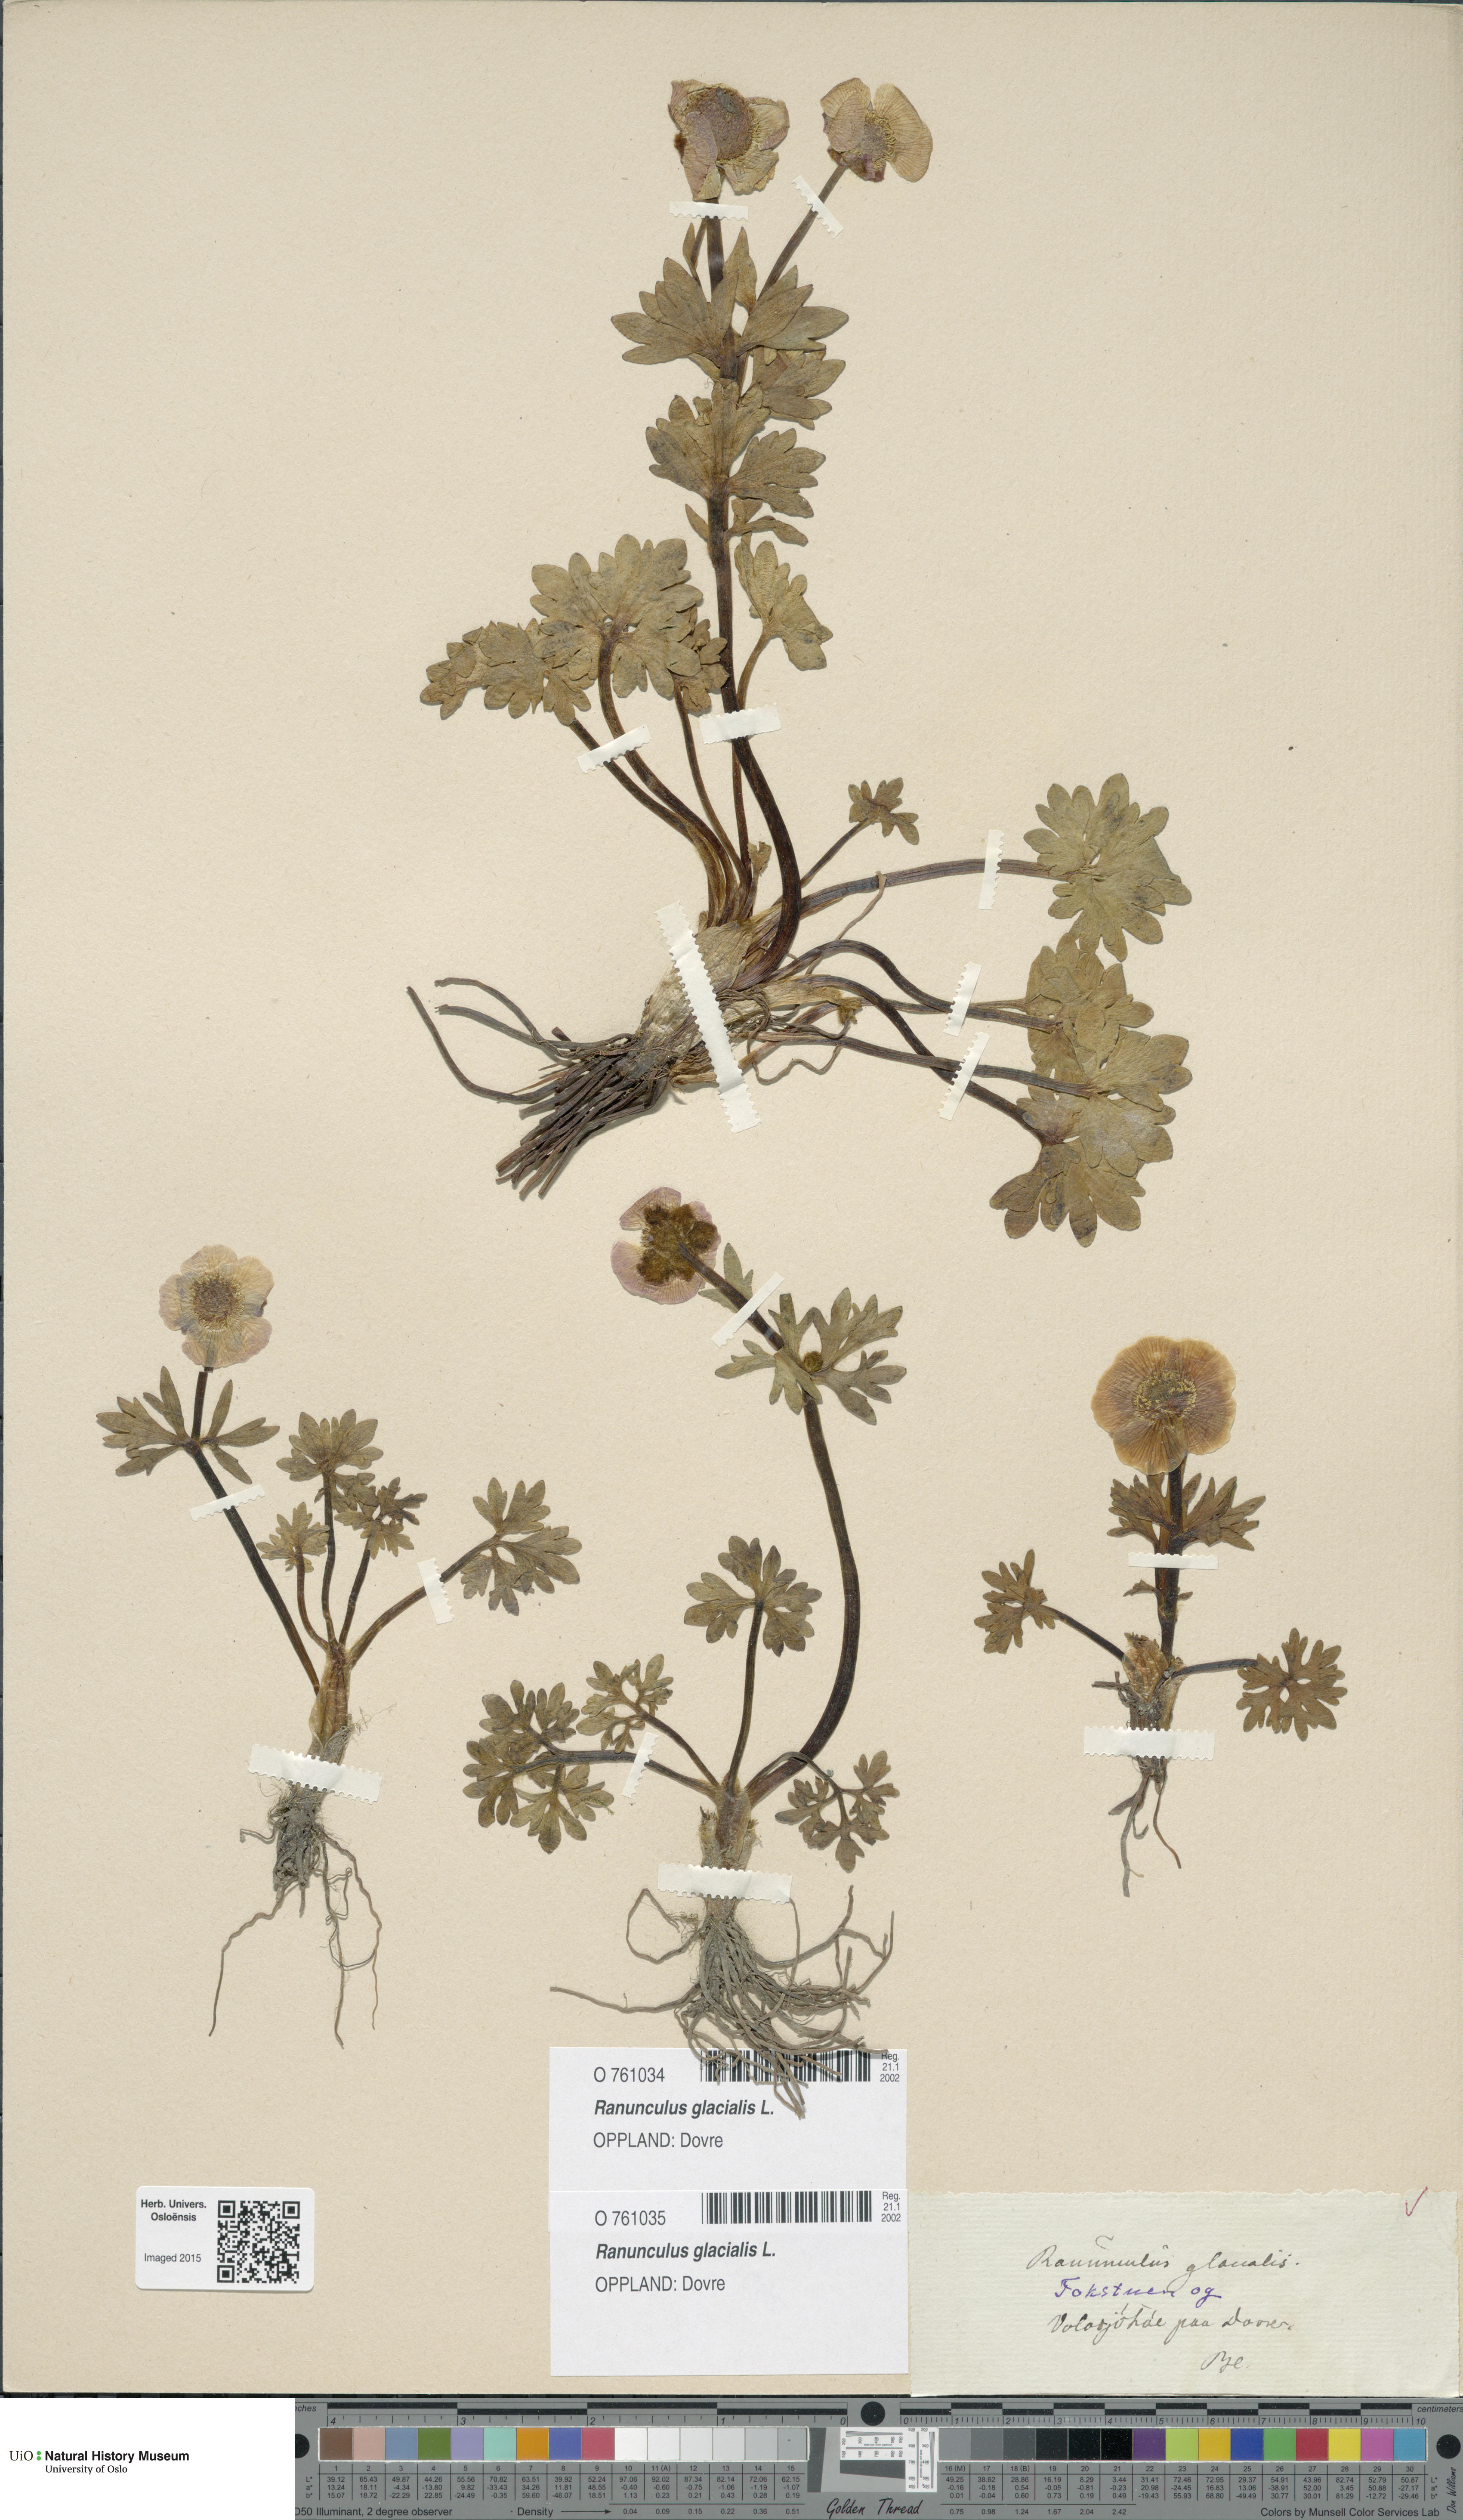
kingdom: Plantae
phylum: Tracheophyta
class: Magnoliopsida
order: Ranunculales
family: Ranunculaceae
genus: Ranunculus
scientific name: Ranunculus glacialis
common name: Glacier buttercup
